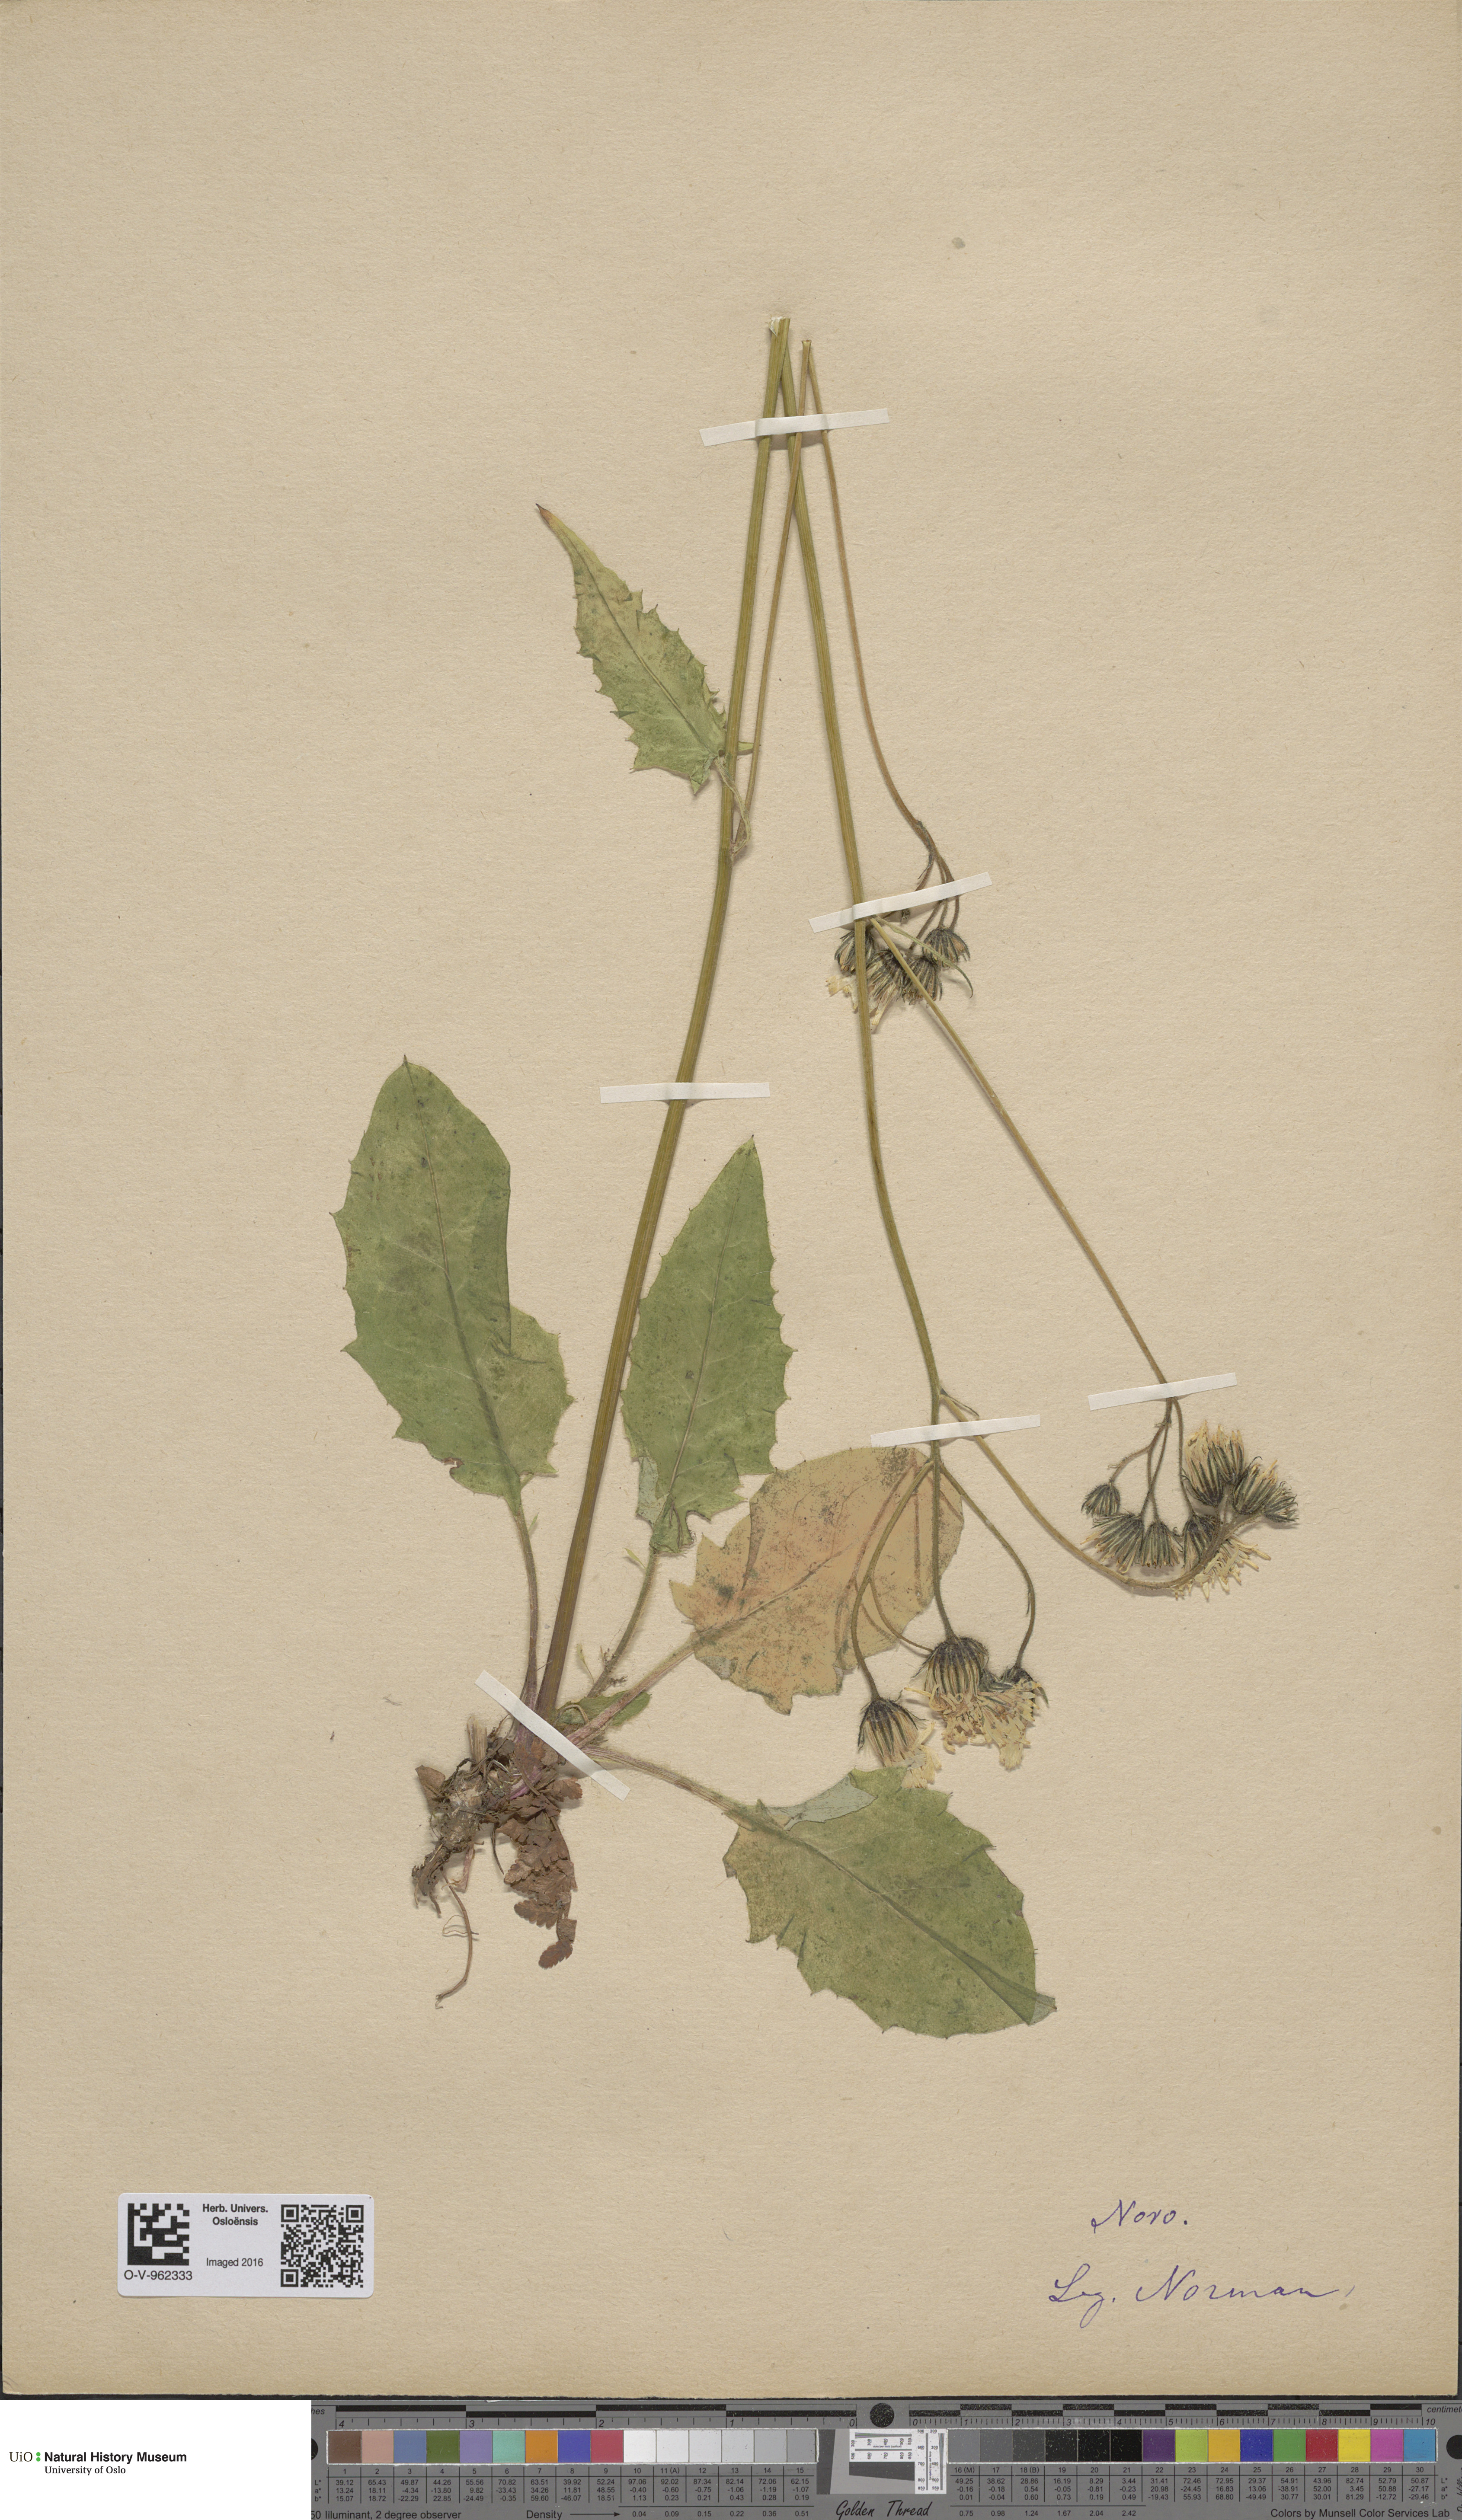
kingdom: Plantae
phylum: Tracheophyta
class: Magnoliopsida
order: Asterales
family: Asteraceae
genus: Hieracium
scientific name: Hieracium
